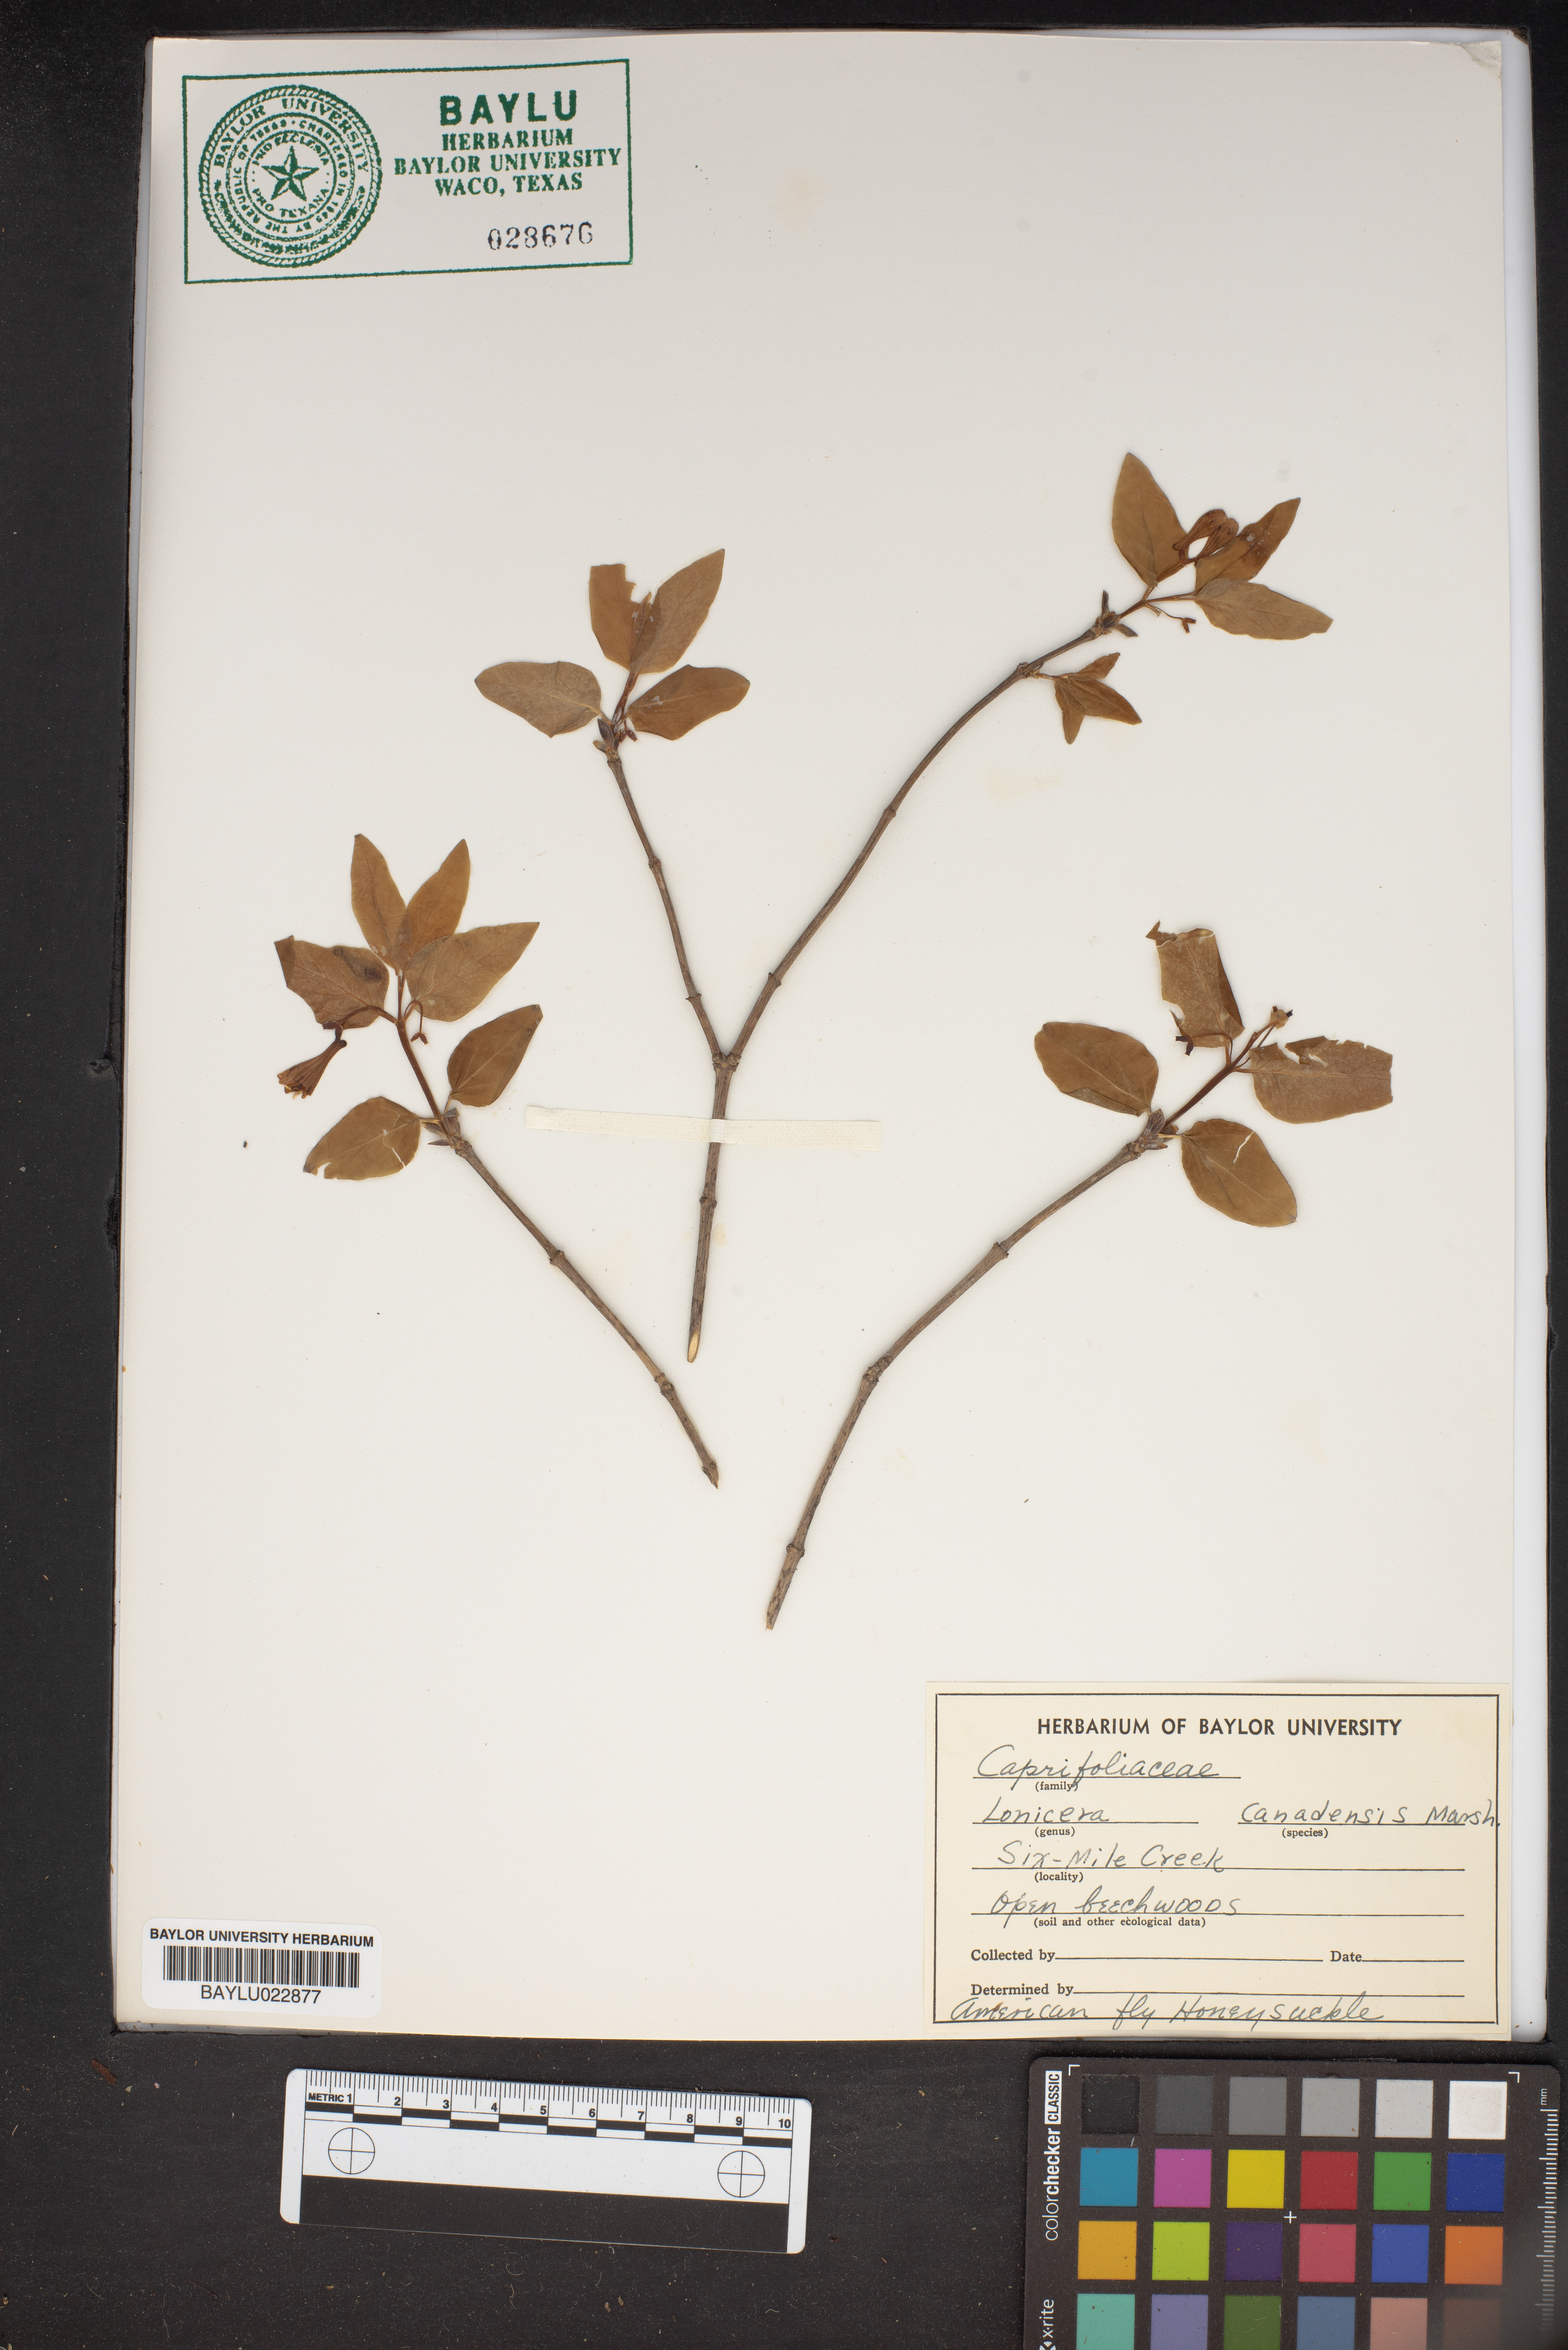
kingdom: Plantae
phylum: Tracheophyta
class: Magnoliopsida
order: Dipsacales
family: Caprifoliaceae
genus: Lonicera
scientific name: Lonicera canadensis
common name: American fly-honeysuckle
